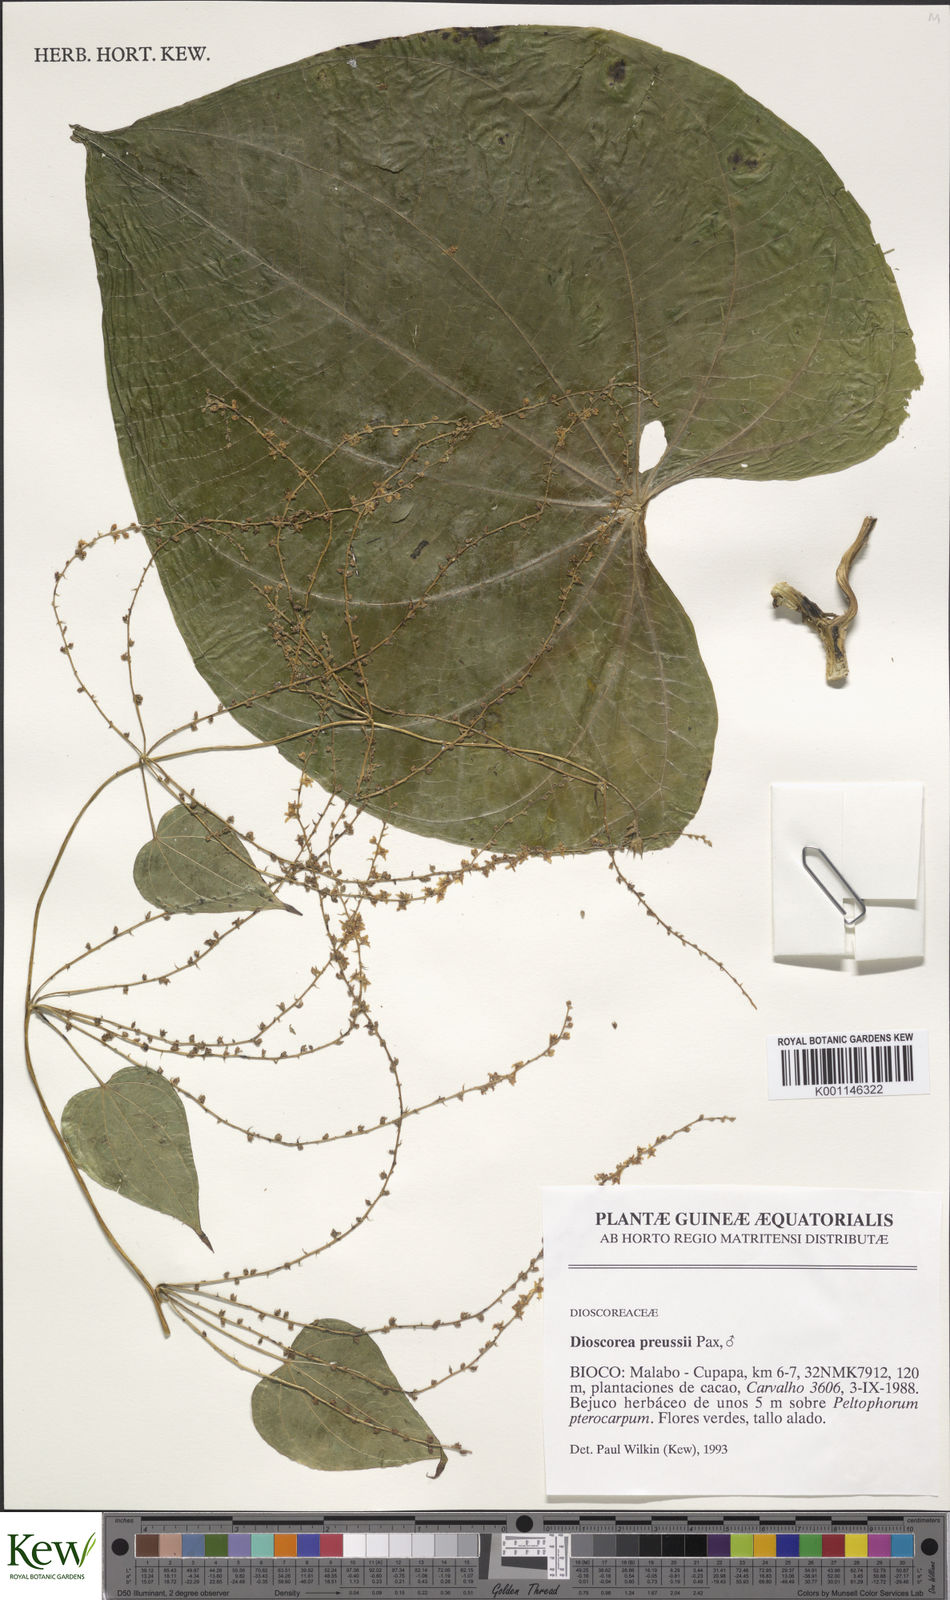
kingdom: Plantae
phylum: Tracheophyta
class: Liliopsida
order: Dioscoreales
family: Dioscoreaceae
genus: Dioscorea
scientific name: Dioscorea preussii
